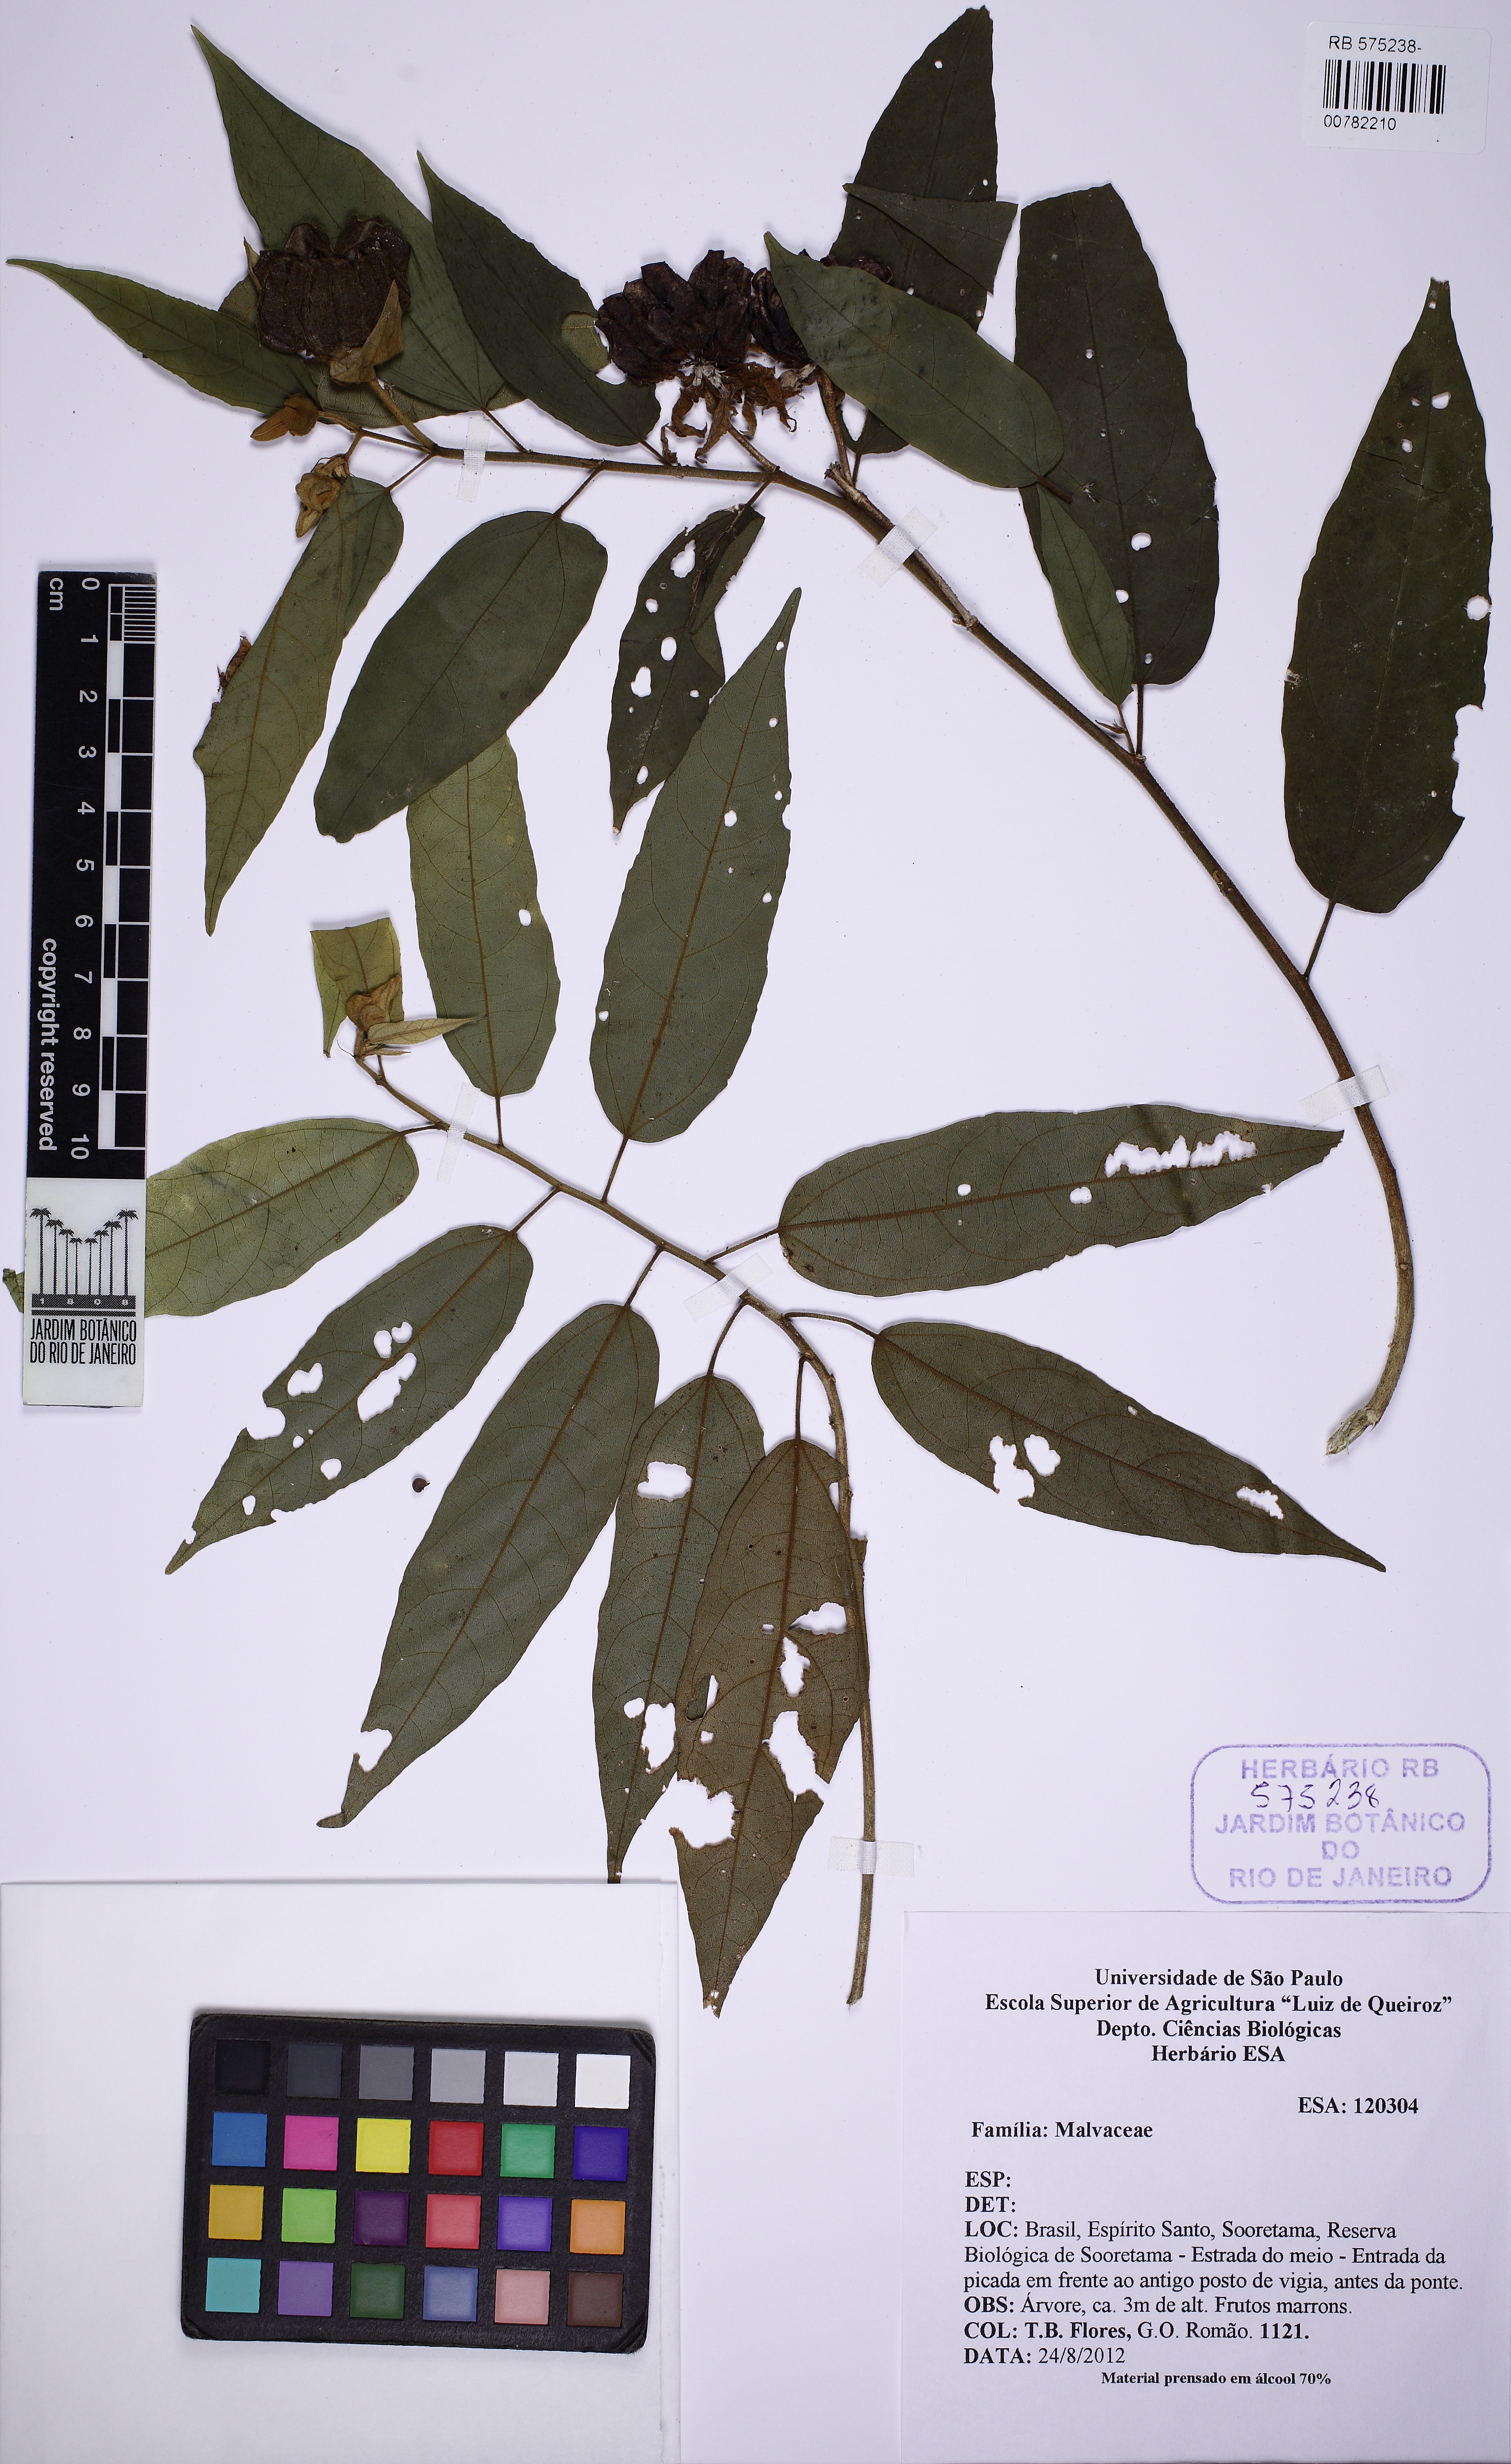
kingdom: Plantae
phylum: Tracheophyta
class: Magnoliopsida
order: Malvales
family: Malvaceae
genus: Callianthe
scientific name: Callianthe inaequalis
